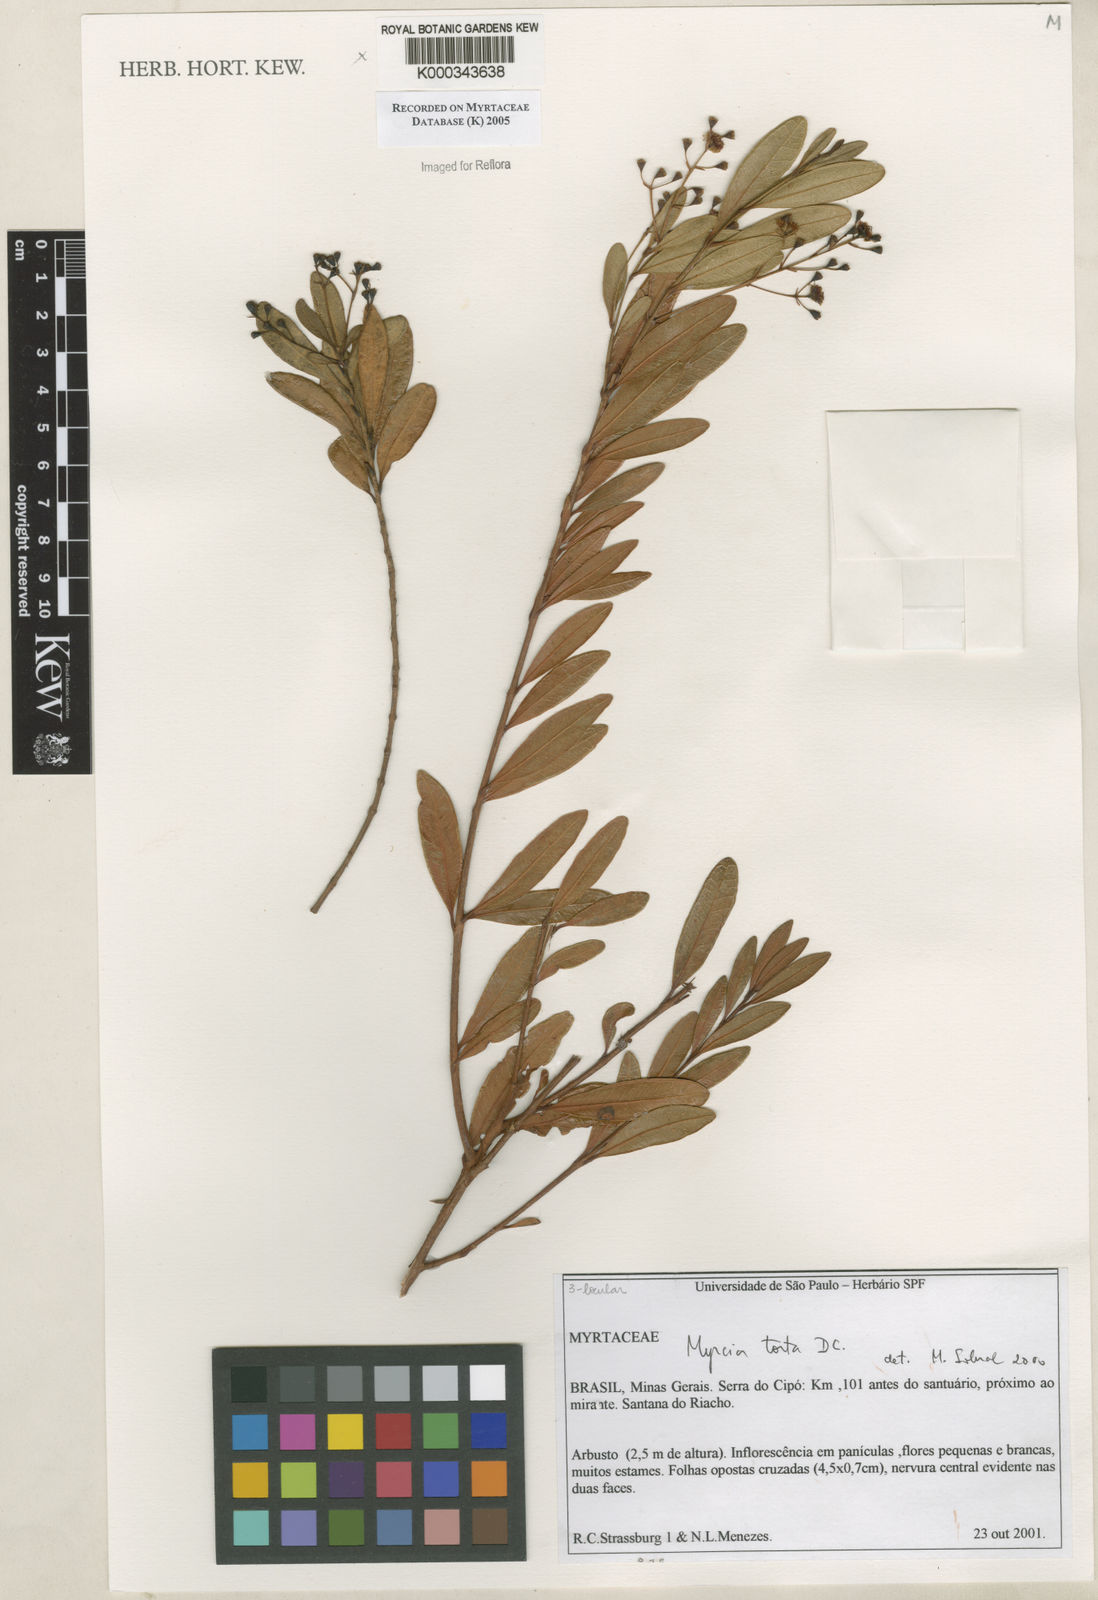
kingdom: Plantae
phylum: Tracheophyta
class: Magnoliopsida
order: Myrtales
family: Myrtaceae
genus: Myrcia
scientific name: Myrcia guianensis
